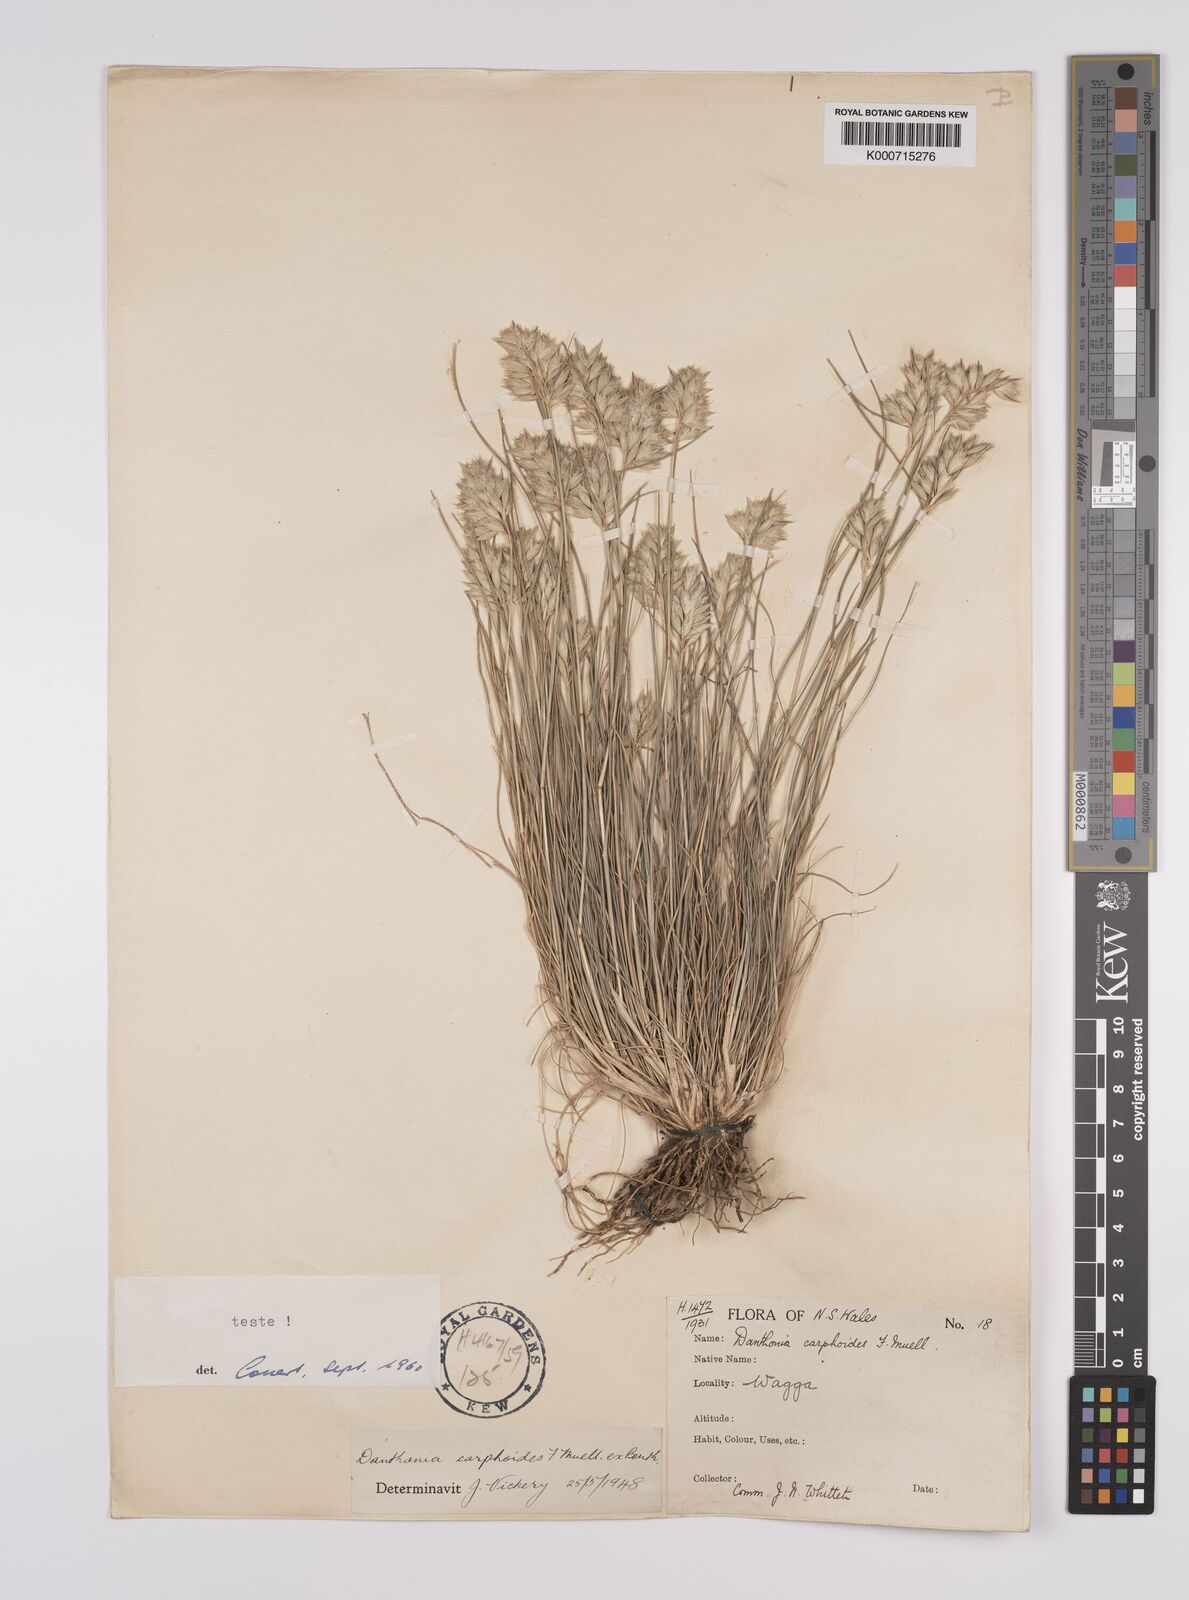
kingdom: Plantae
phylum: Tracheophyta
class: Liliopsida
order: Poales
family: Poaceae
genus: Rytidosperma
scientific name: Rytidosperma carphoides
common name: Short wallaby grass
